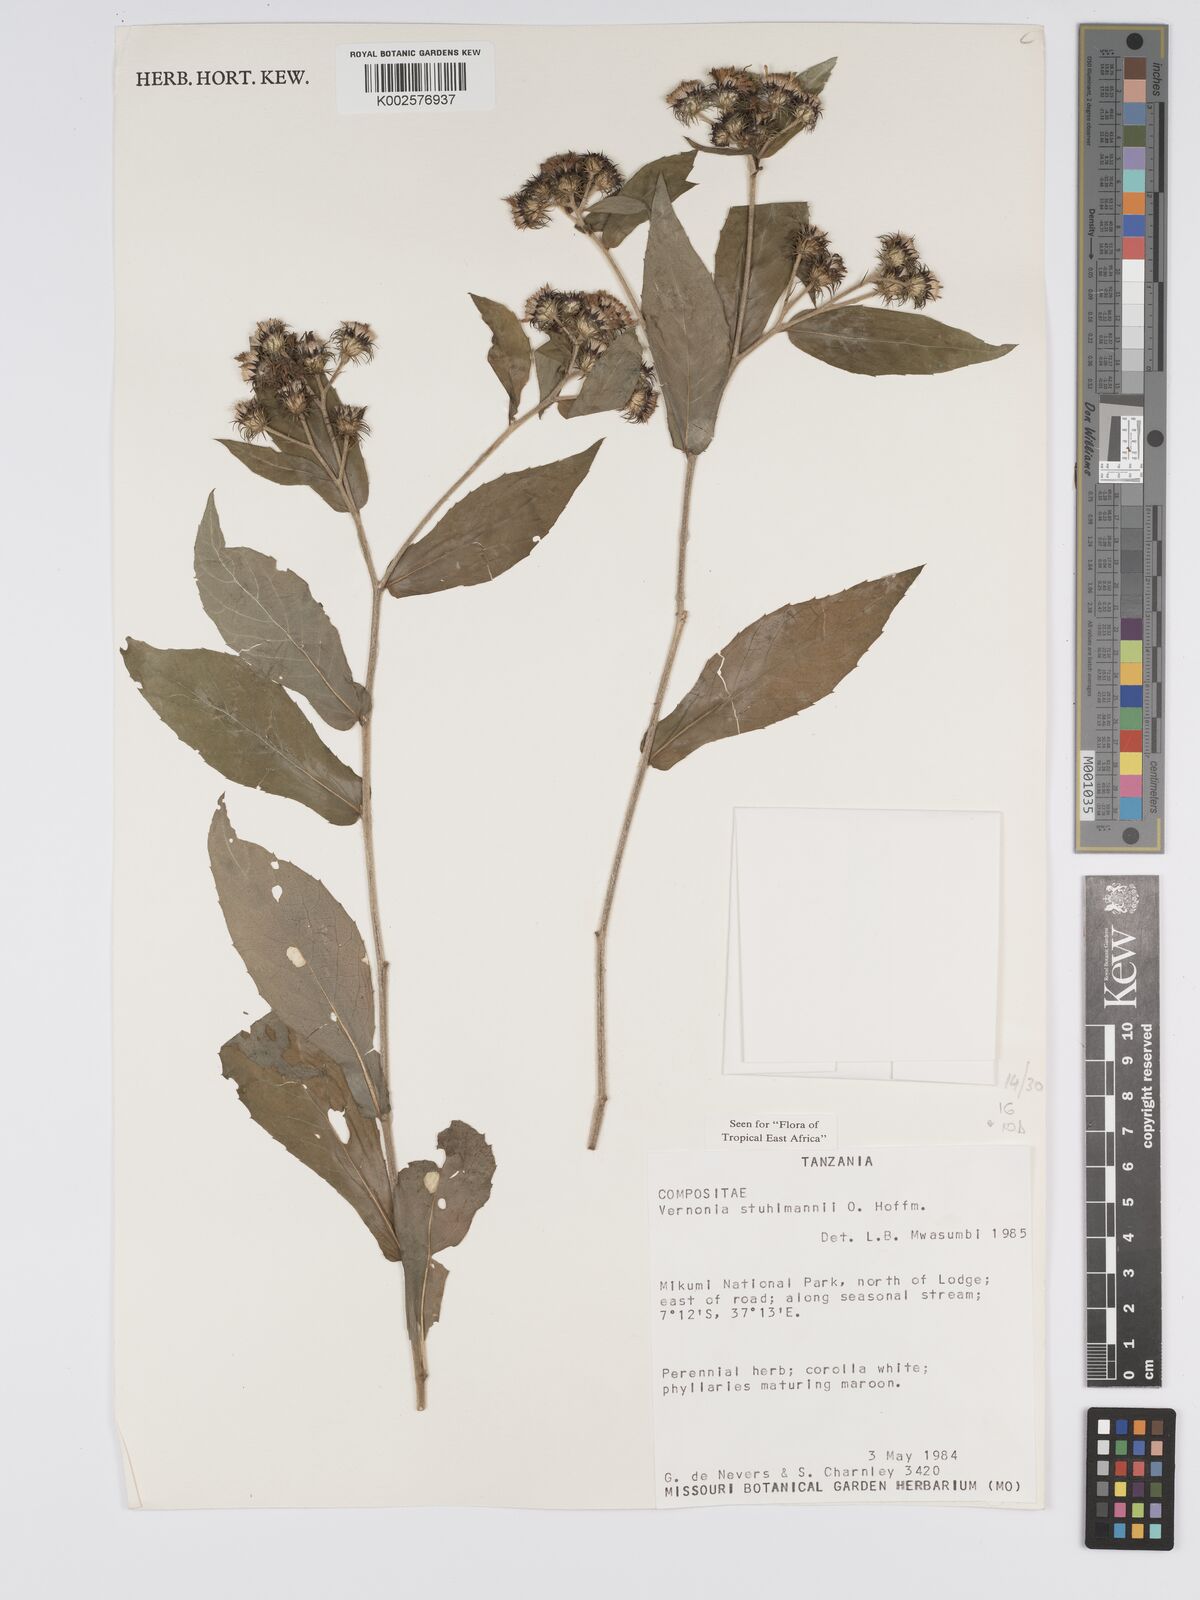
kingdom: Plantae
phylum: Tracheophyta
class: Magnoliopsida
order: Asterales
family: Asteraceae
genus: Vernonia
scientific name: Vernonia stuhlmannii
